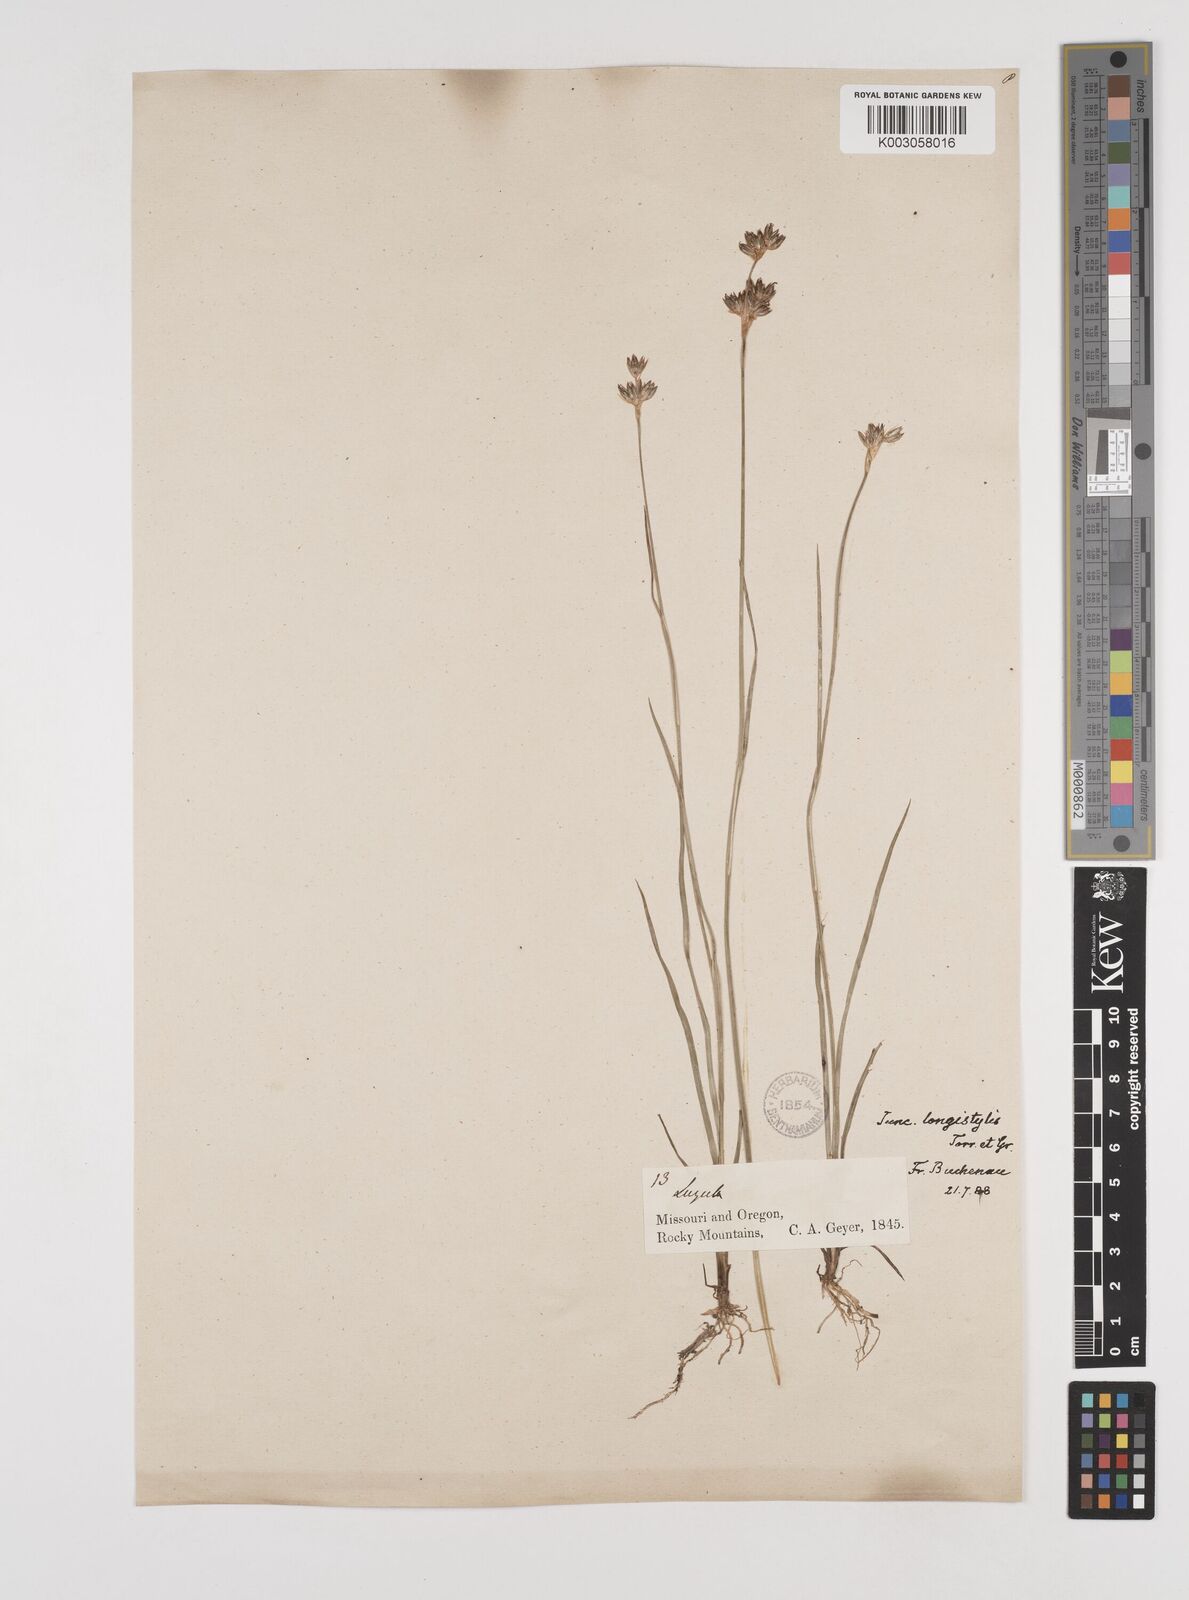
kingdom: Plantae
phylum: Tracheophyta
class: Liliopsida
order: Poales
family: Juncaceae
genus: Juncus
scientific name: Juncus longistylis
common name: Long-style rush
